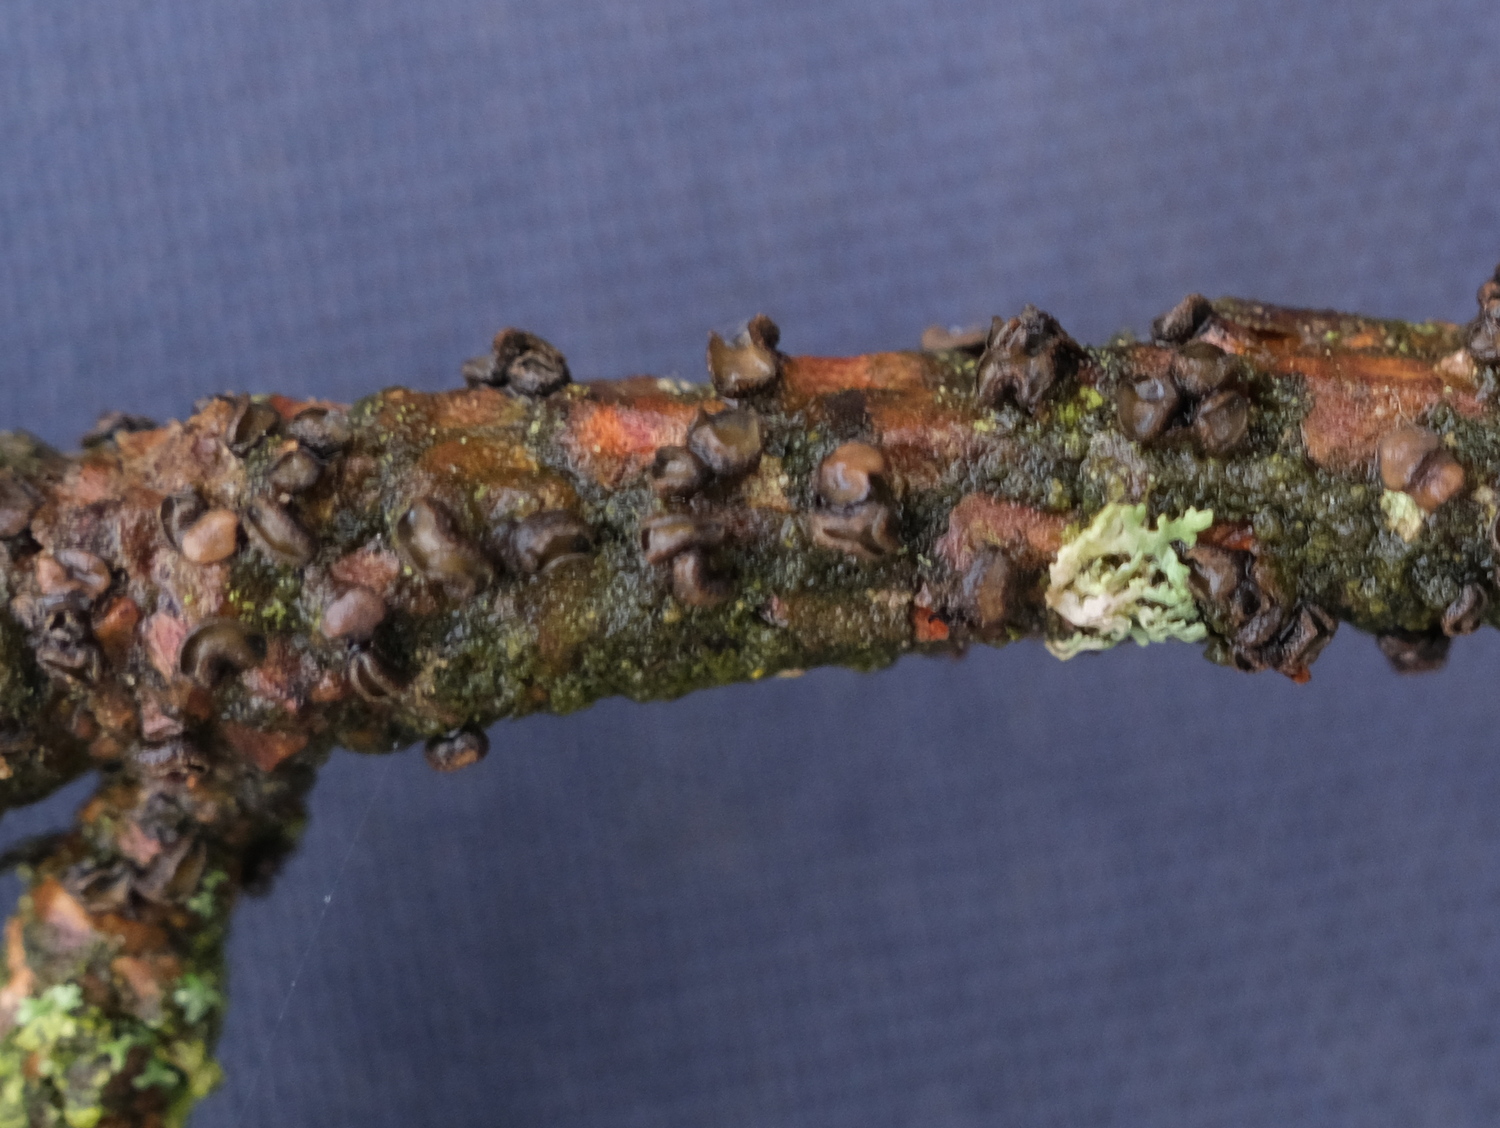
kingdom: Fungi
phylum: Ascomycota
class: Leotiomycetes
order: Helotiales
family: Cenangiaceae
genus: Cenangium
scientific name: Cenangium ferruginosum
